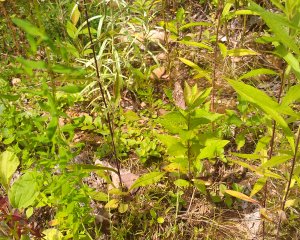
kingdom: Animalia
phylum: Arthropoda
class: Insecta
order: Lepidoptera
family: Nymphalidae
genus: Lethe
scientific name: Lethe anthedon
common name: Northern Pearly-Eye
